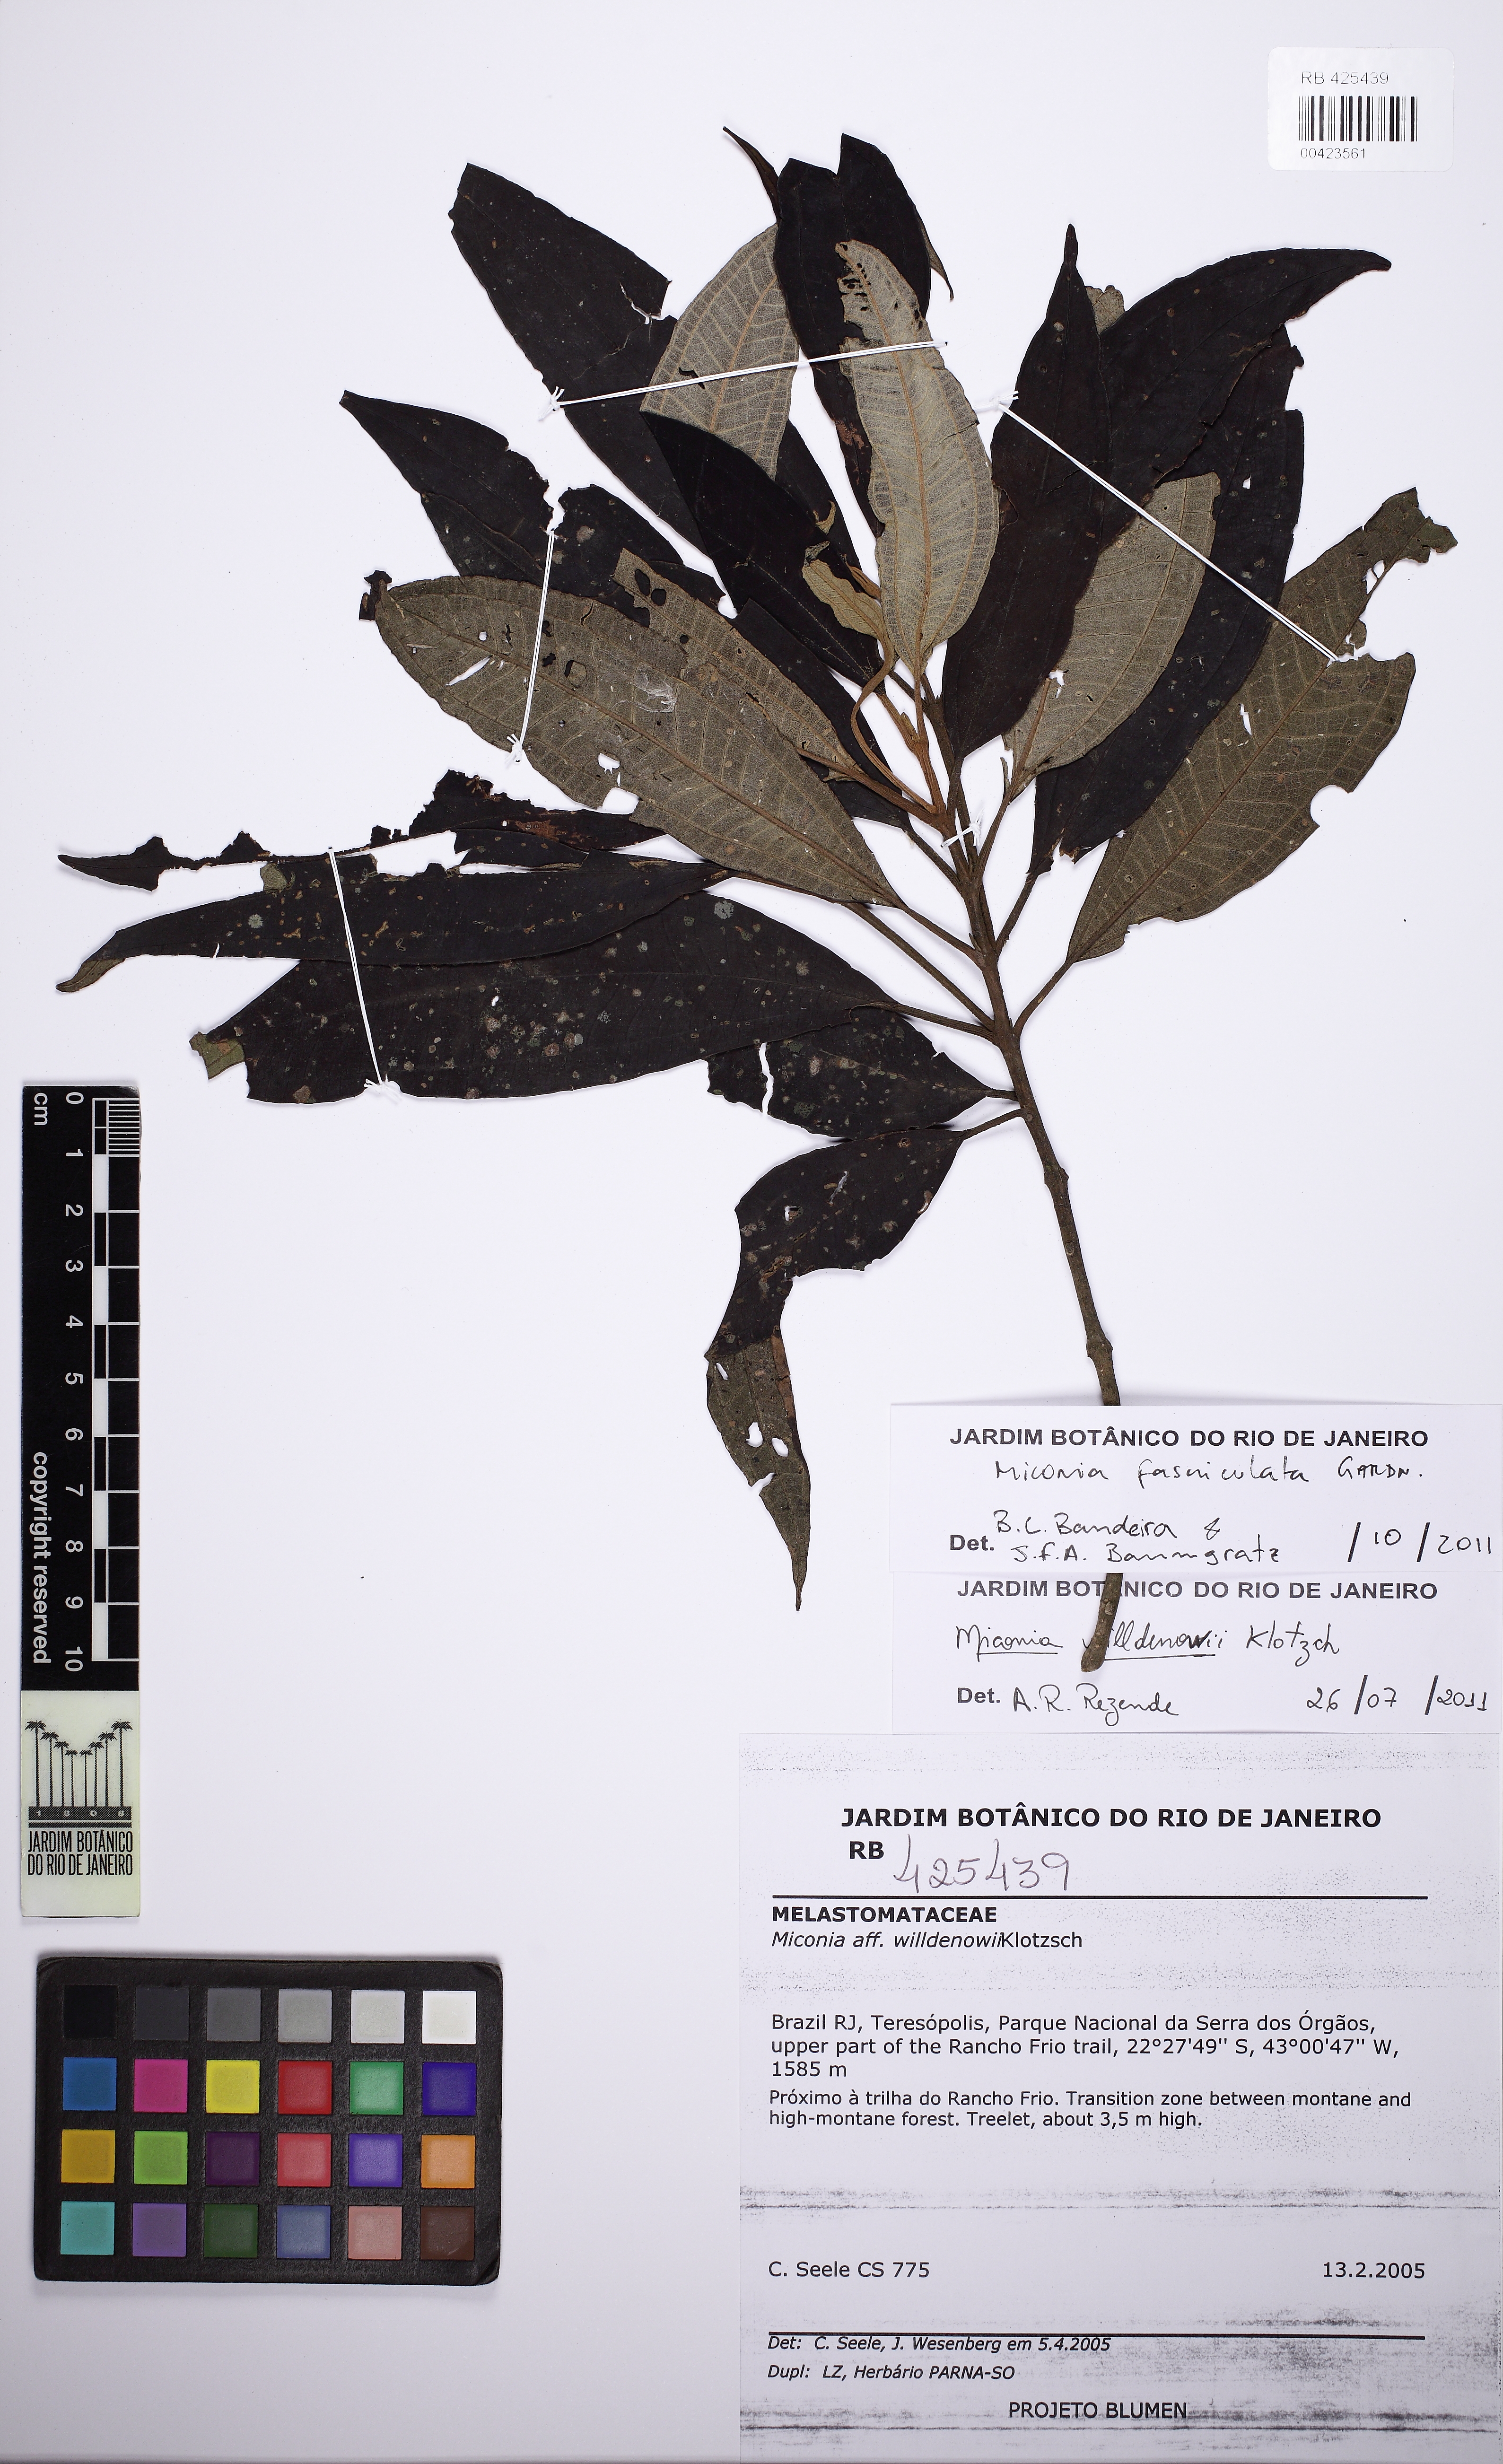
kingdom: Plantae
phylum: Tracheophyta
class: Magnoliopsida
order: Myrtales
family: Melastomataceae
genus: Miconia
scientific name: Miconia fasciculata
